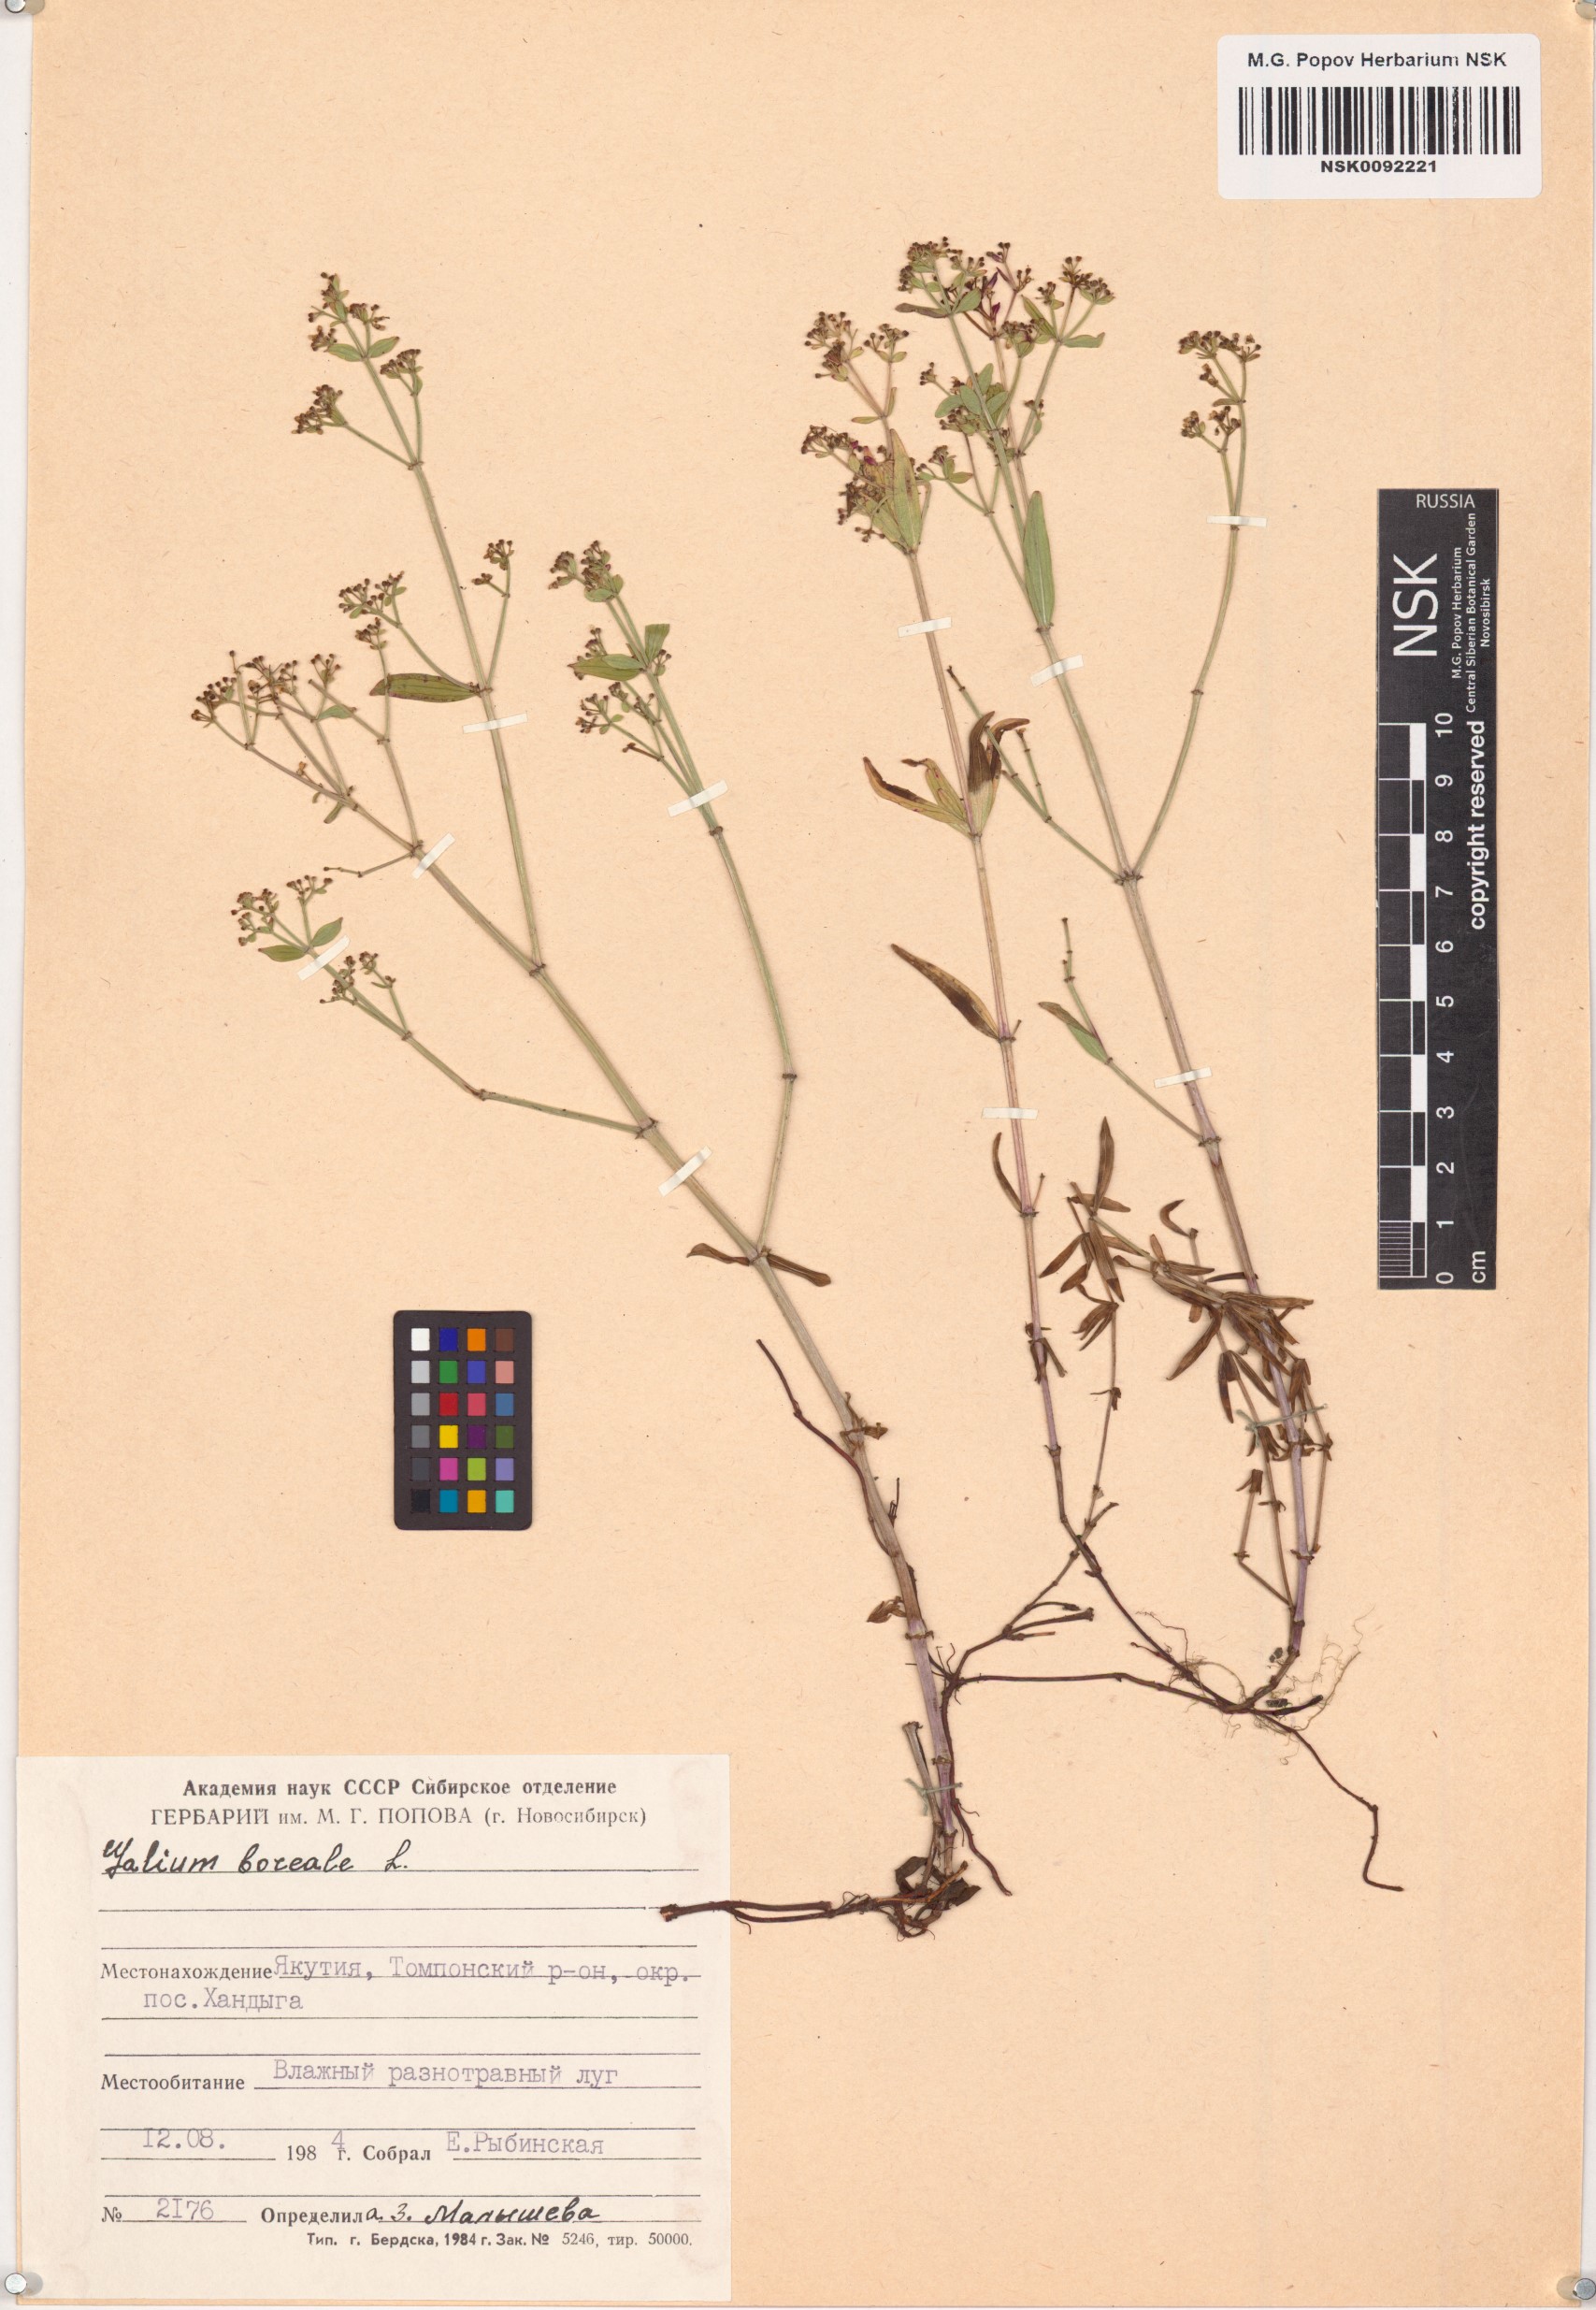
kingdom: Plantae
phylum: Tracheophyta
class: Magnoliopsida
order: Gentianales
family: Rubiaceae
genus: Galium
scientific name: Galium boreale
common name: Northern bedstraw
